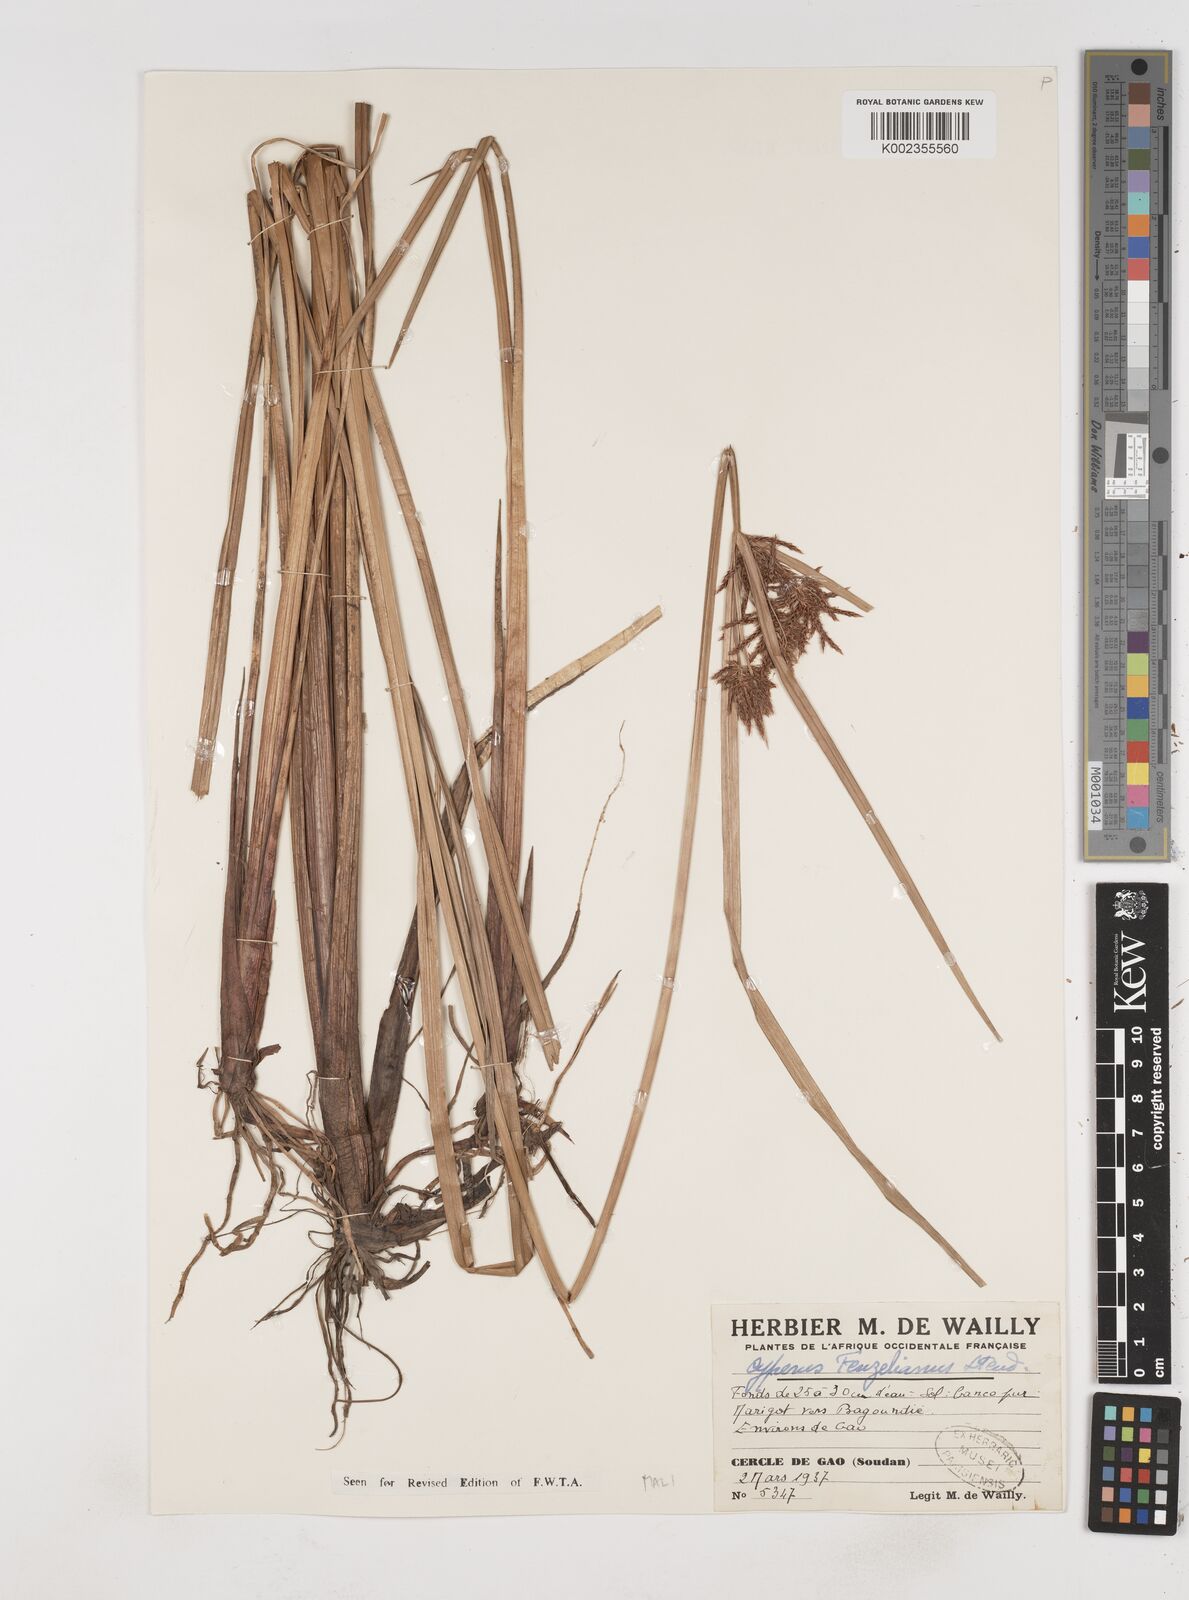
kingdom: Plantae
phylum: Tracheophyta
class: Liliopsida
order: Poales
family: Cyperaceae
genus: Cyperus
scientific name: Cyperus longus
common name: Galingale
